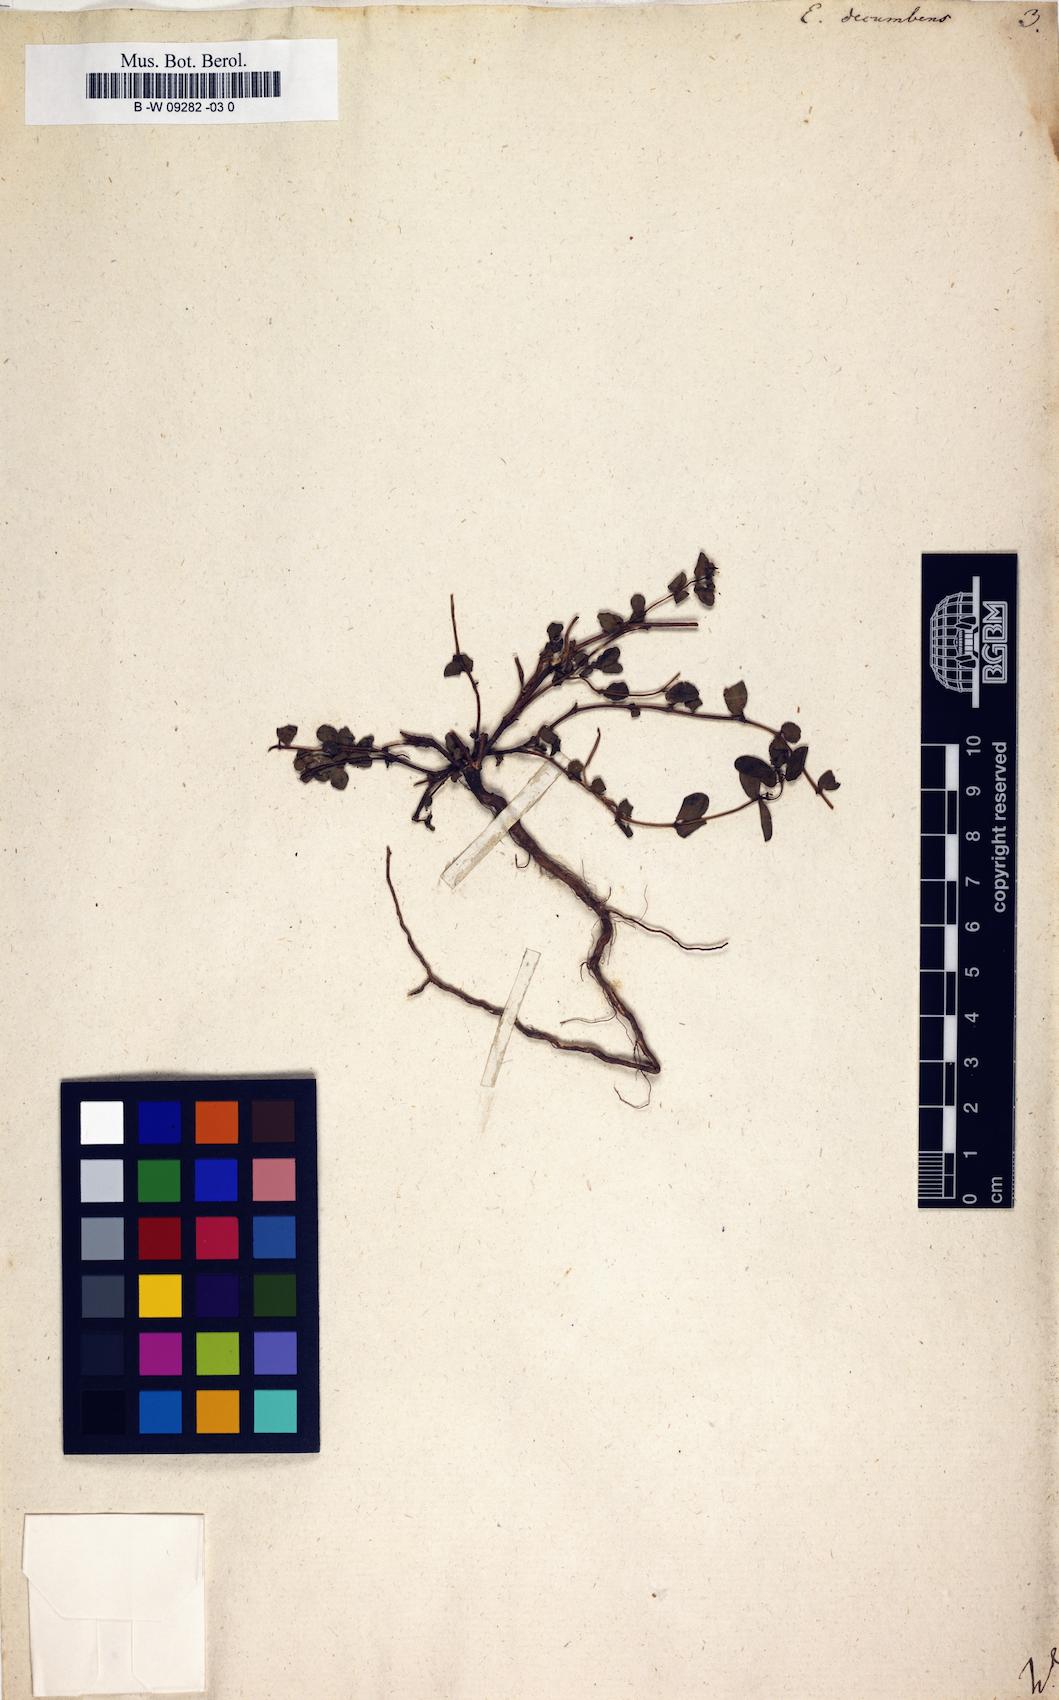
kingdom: Plantae
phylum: Tracheophyta
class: Magnoliopsida
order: Malpighiales
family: Euphorbiaceae
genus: Euphorbia
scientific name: Euphorbia indica
